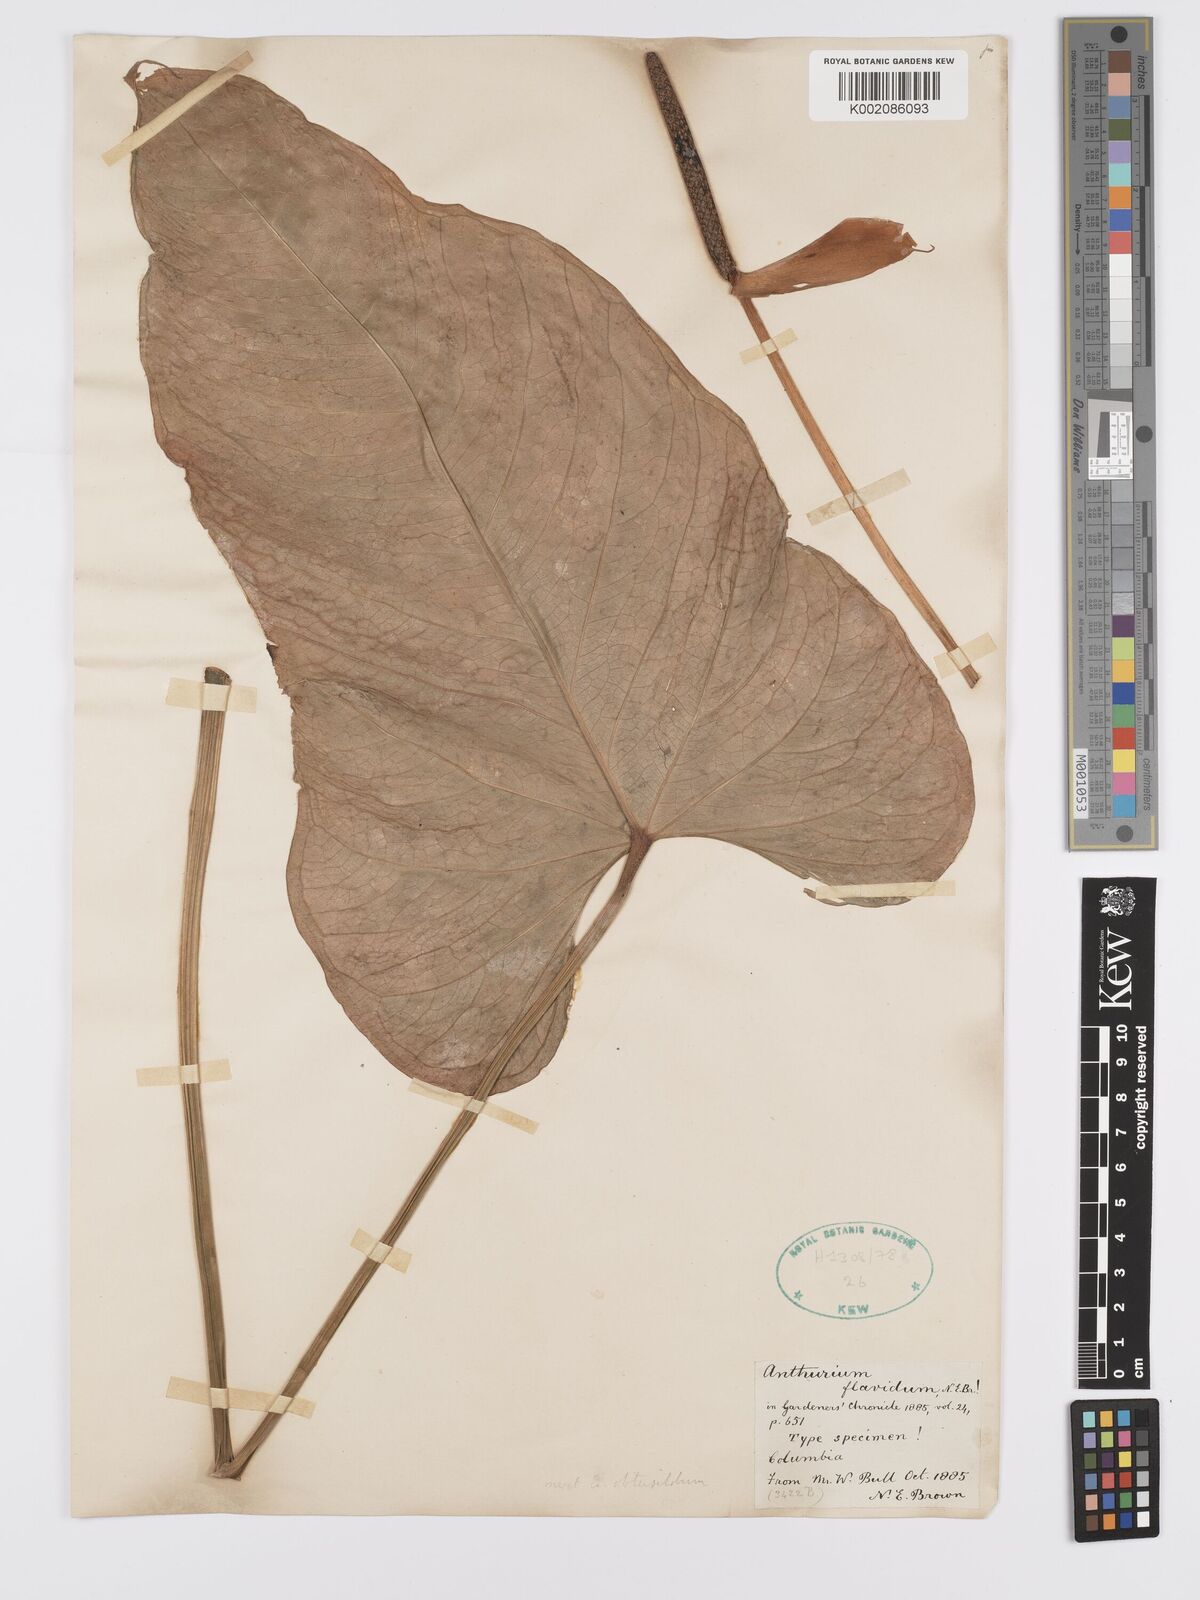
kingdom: Plantae
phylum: Tracheophyta
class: Liliopsida
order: Alismatales
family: Araceae
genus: Anthurium
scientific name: Anthurium flavidum
